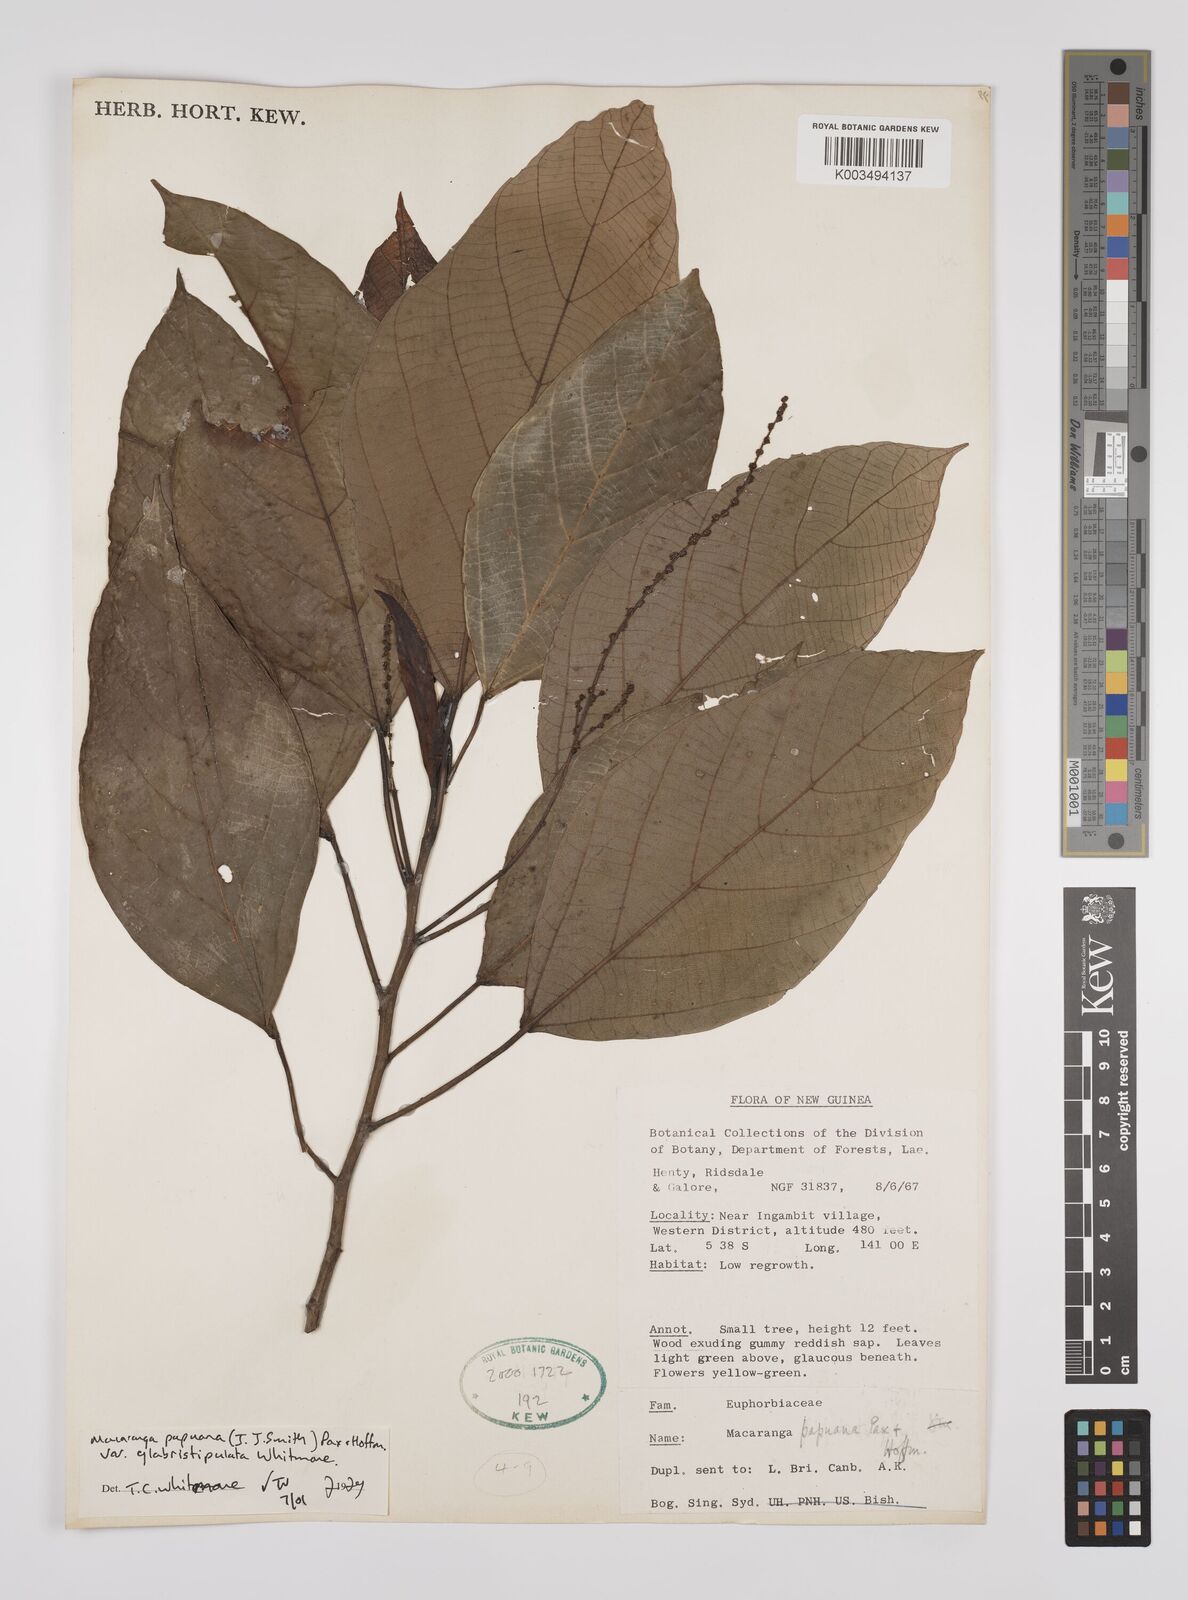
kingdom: Plantae
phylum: Tracheophyta
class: Magnoliopsida
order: Malpighiales
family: Euphorbiaceae
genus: Macaranga
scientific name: Macaranga aleuritoides
